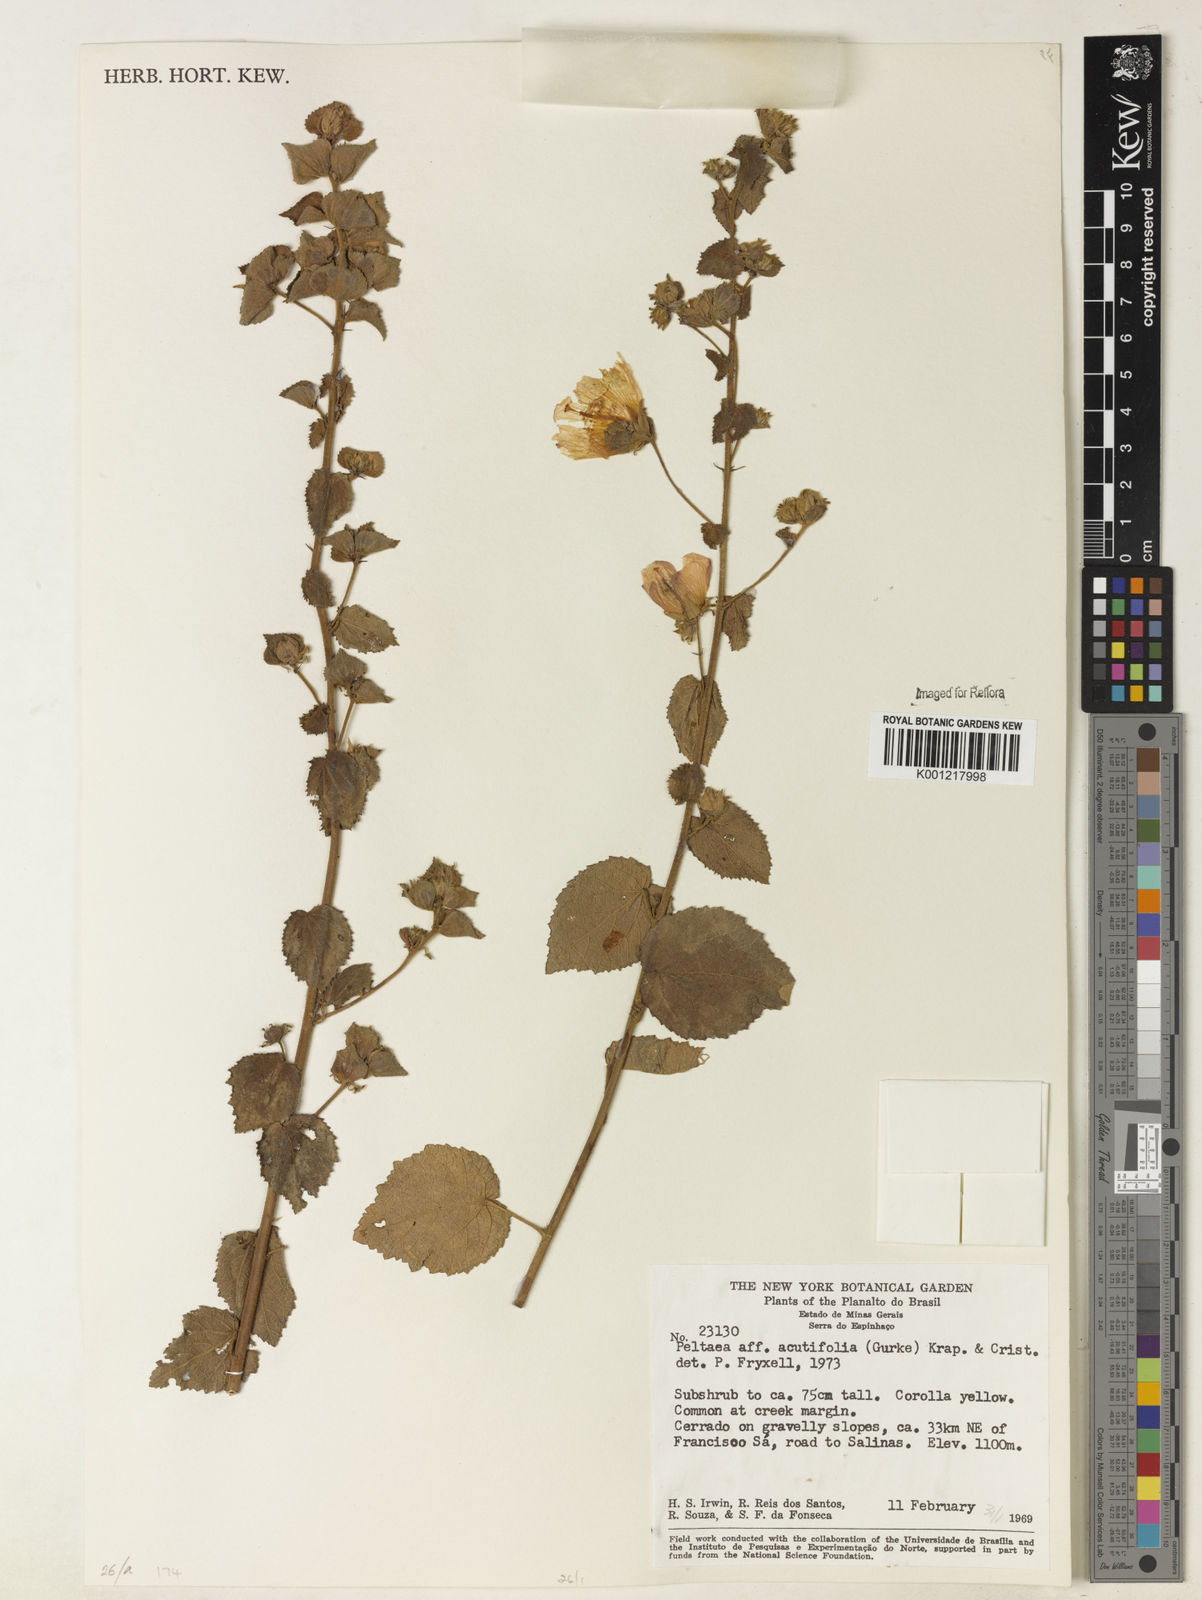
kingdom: Plantae
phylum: Tracheophyta
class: Magnoliopsida
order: Malvales
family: Malvaceae
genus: Peltaea
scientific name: Peltaea
